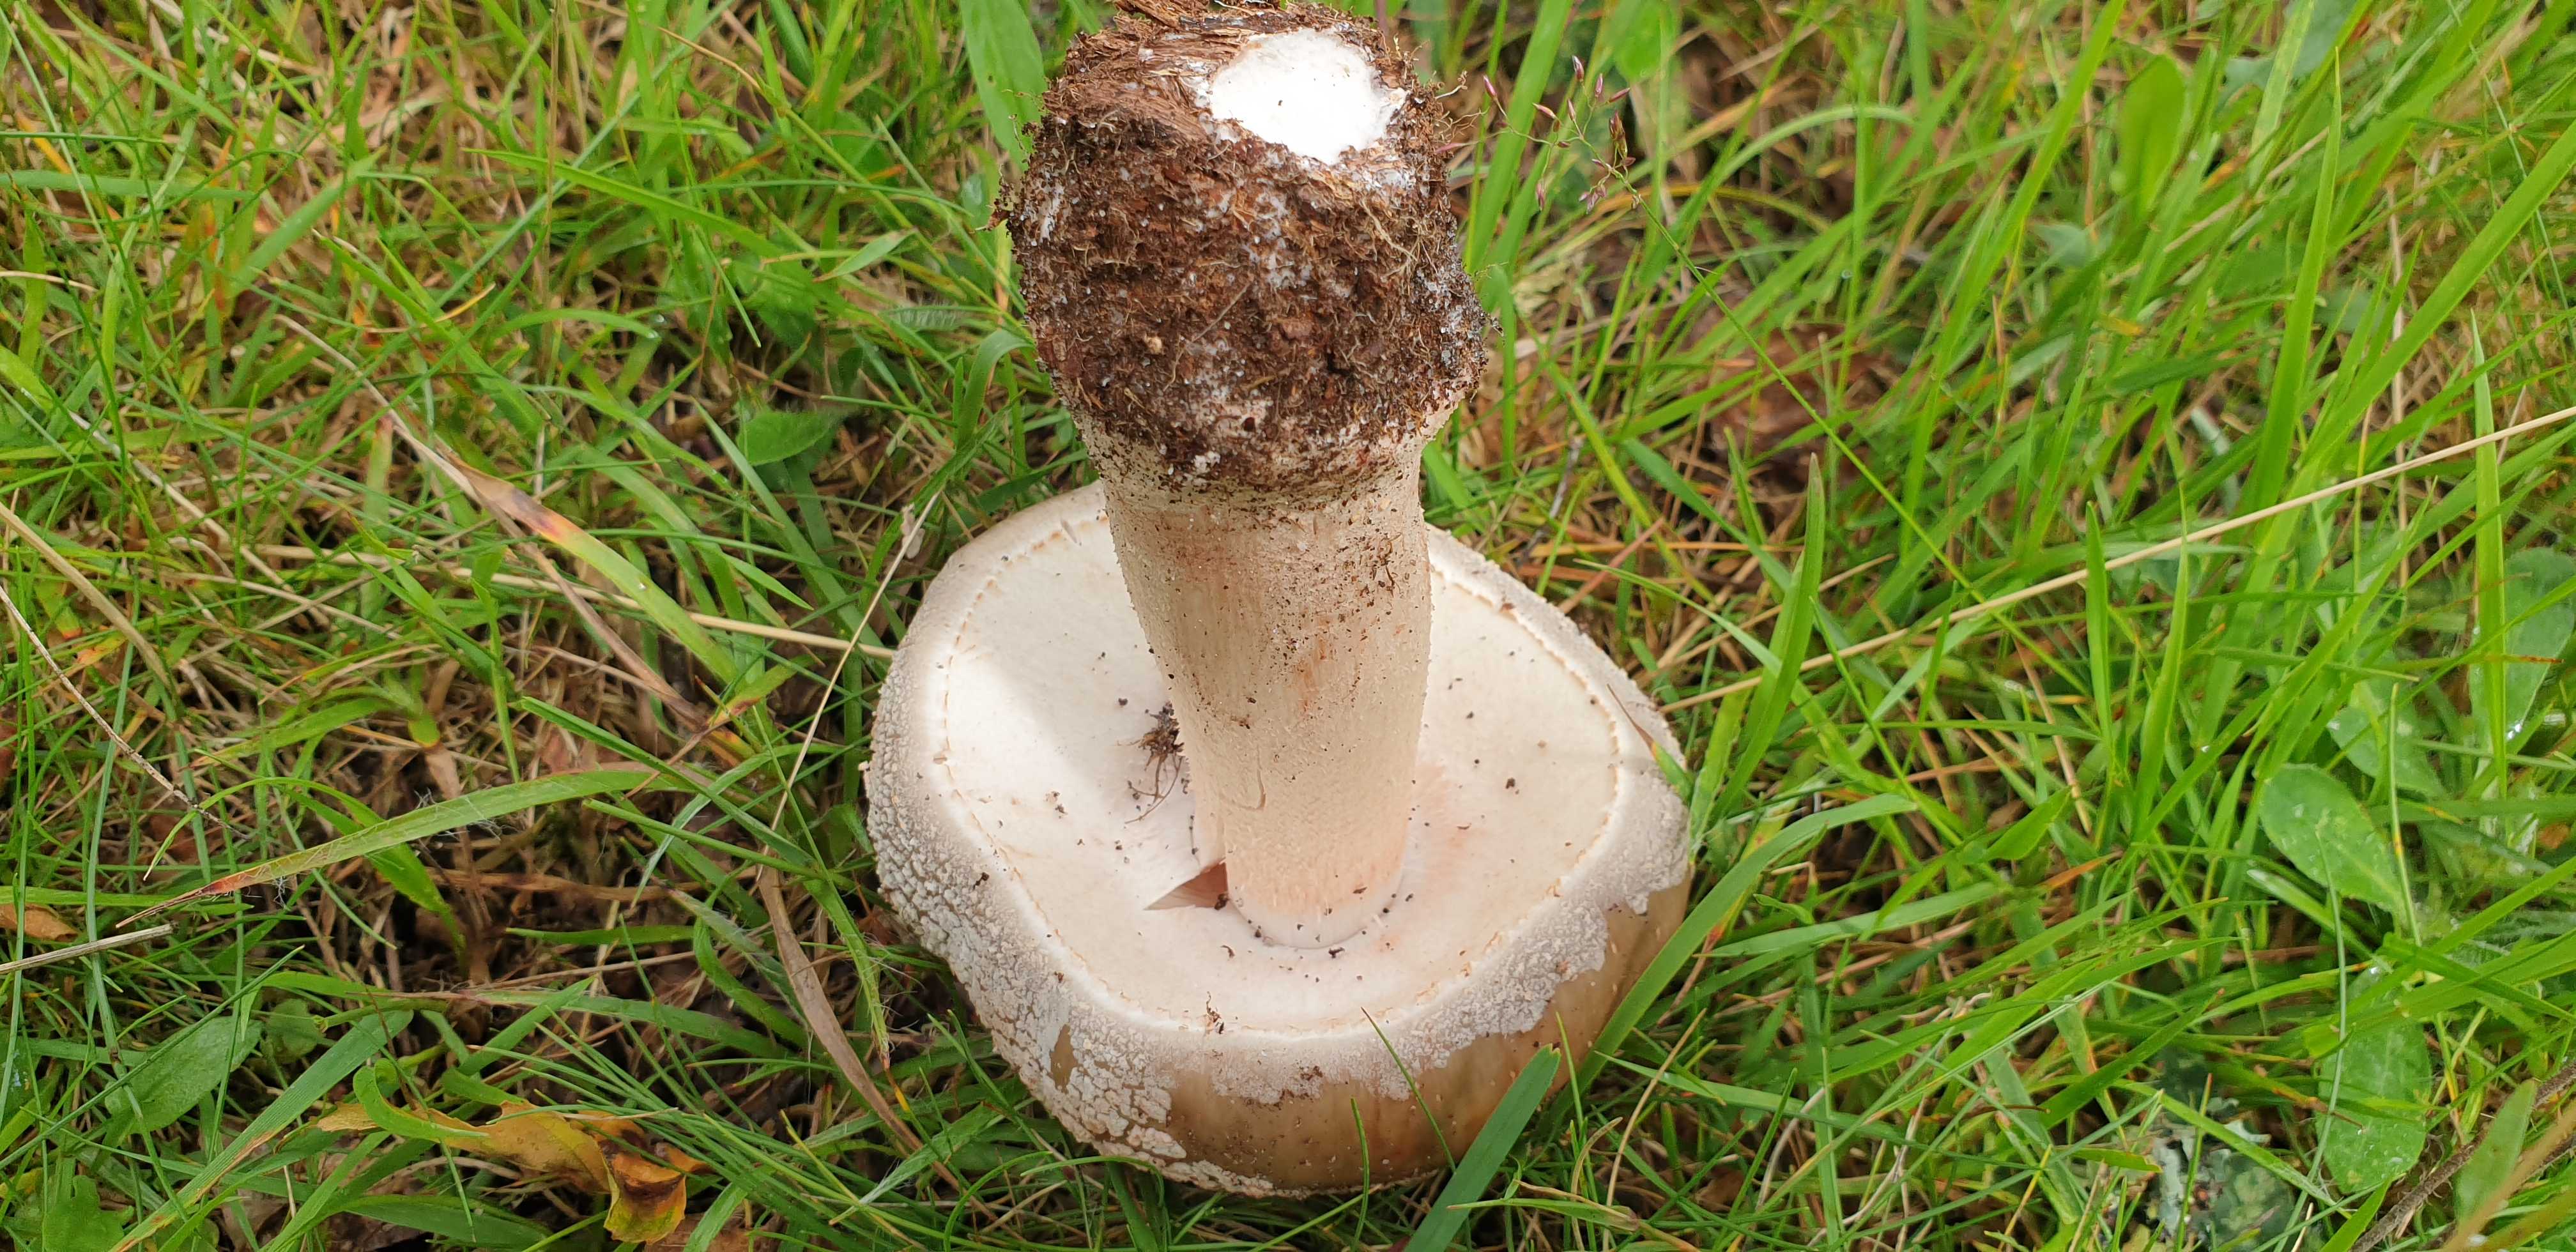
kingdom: Fungi
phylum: Basidiomycota
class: Agaricomycetes
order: Agaricales
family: Amanitaceae
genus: Amanita
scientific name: Amanita rubescens
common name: rødmende fluesvamp
